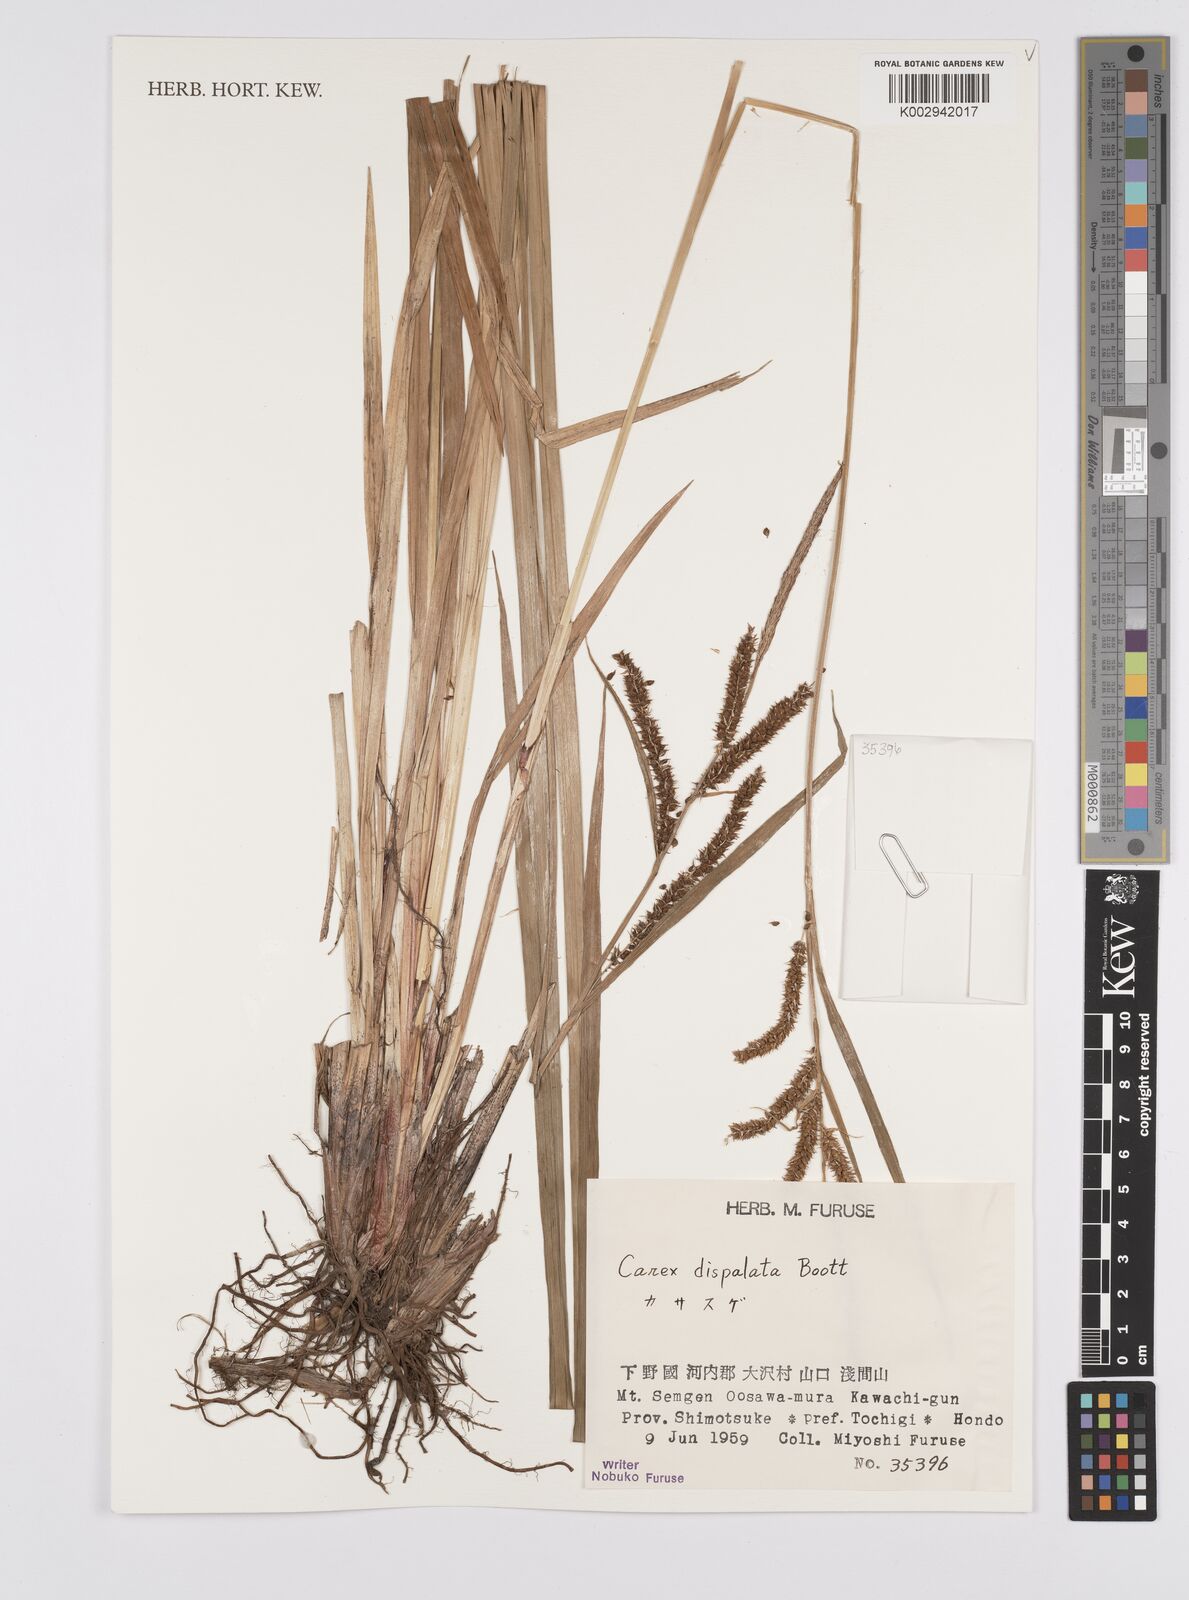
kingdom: Plantae
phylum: Tracheophyta
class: Liliopsida
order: Poales
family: Cyperaceae
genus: Carex
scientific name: Carex dispalata
